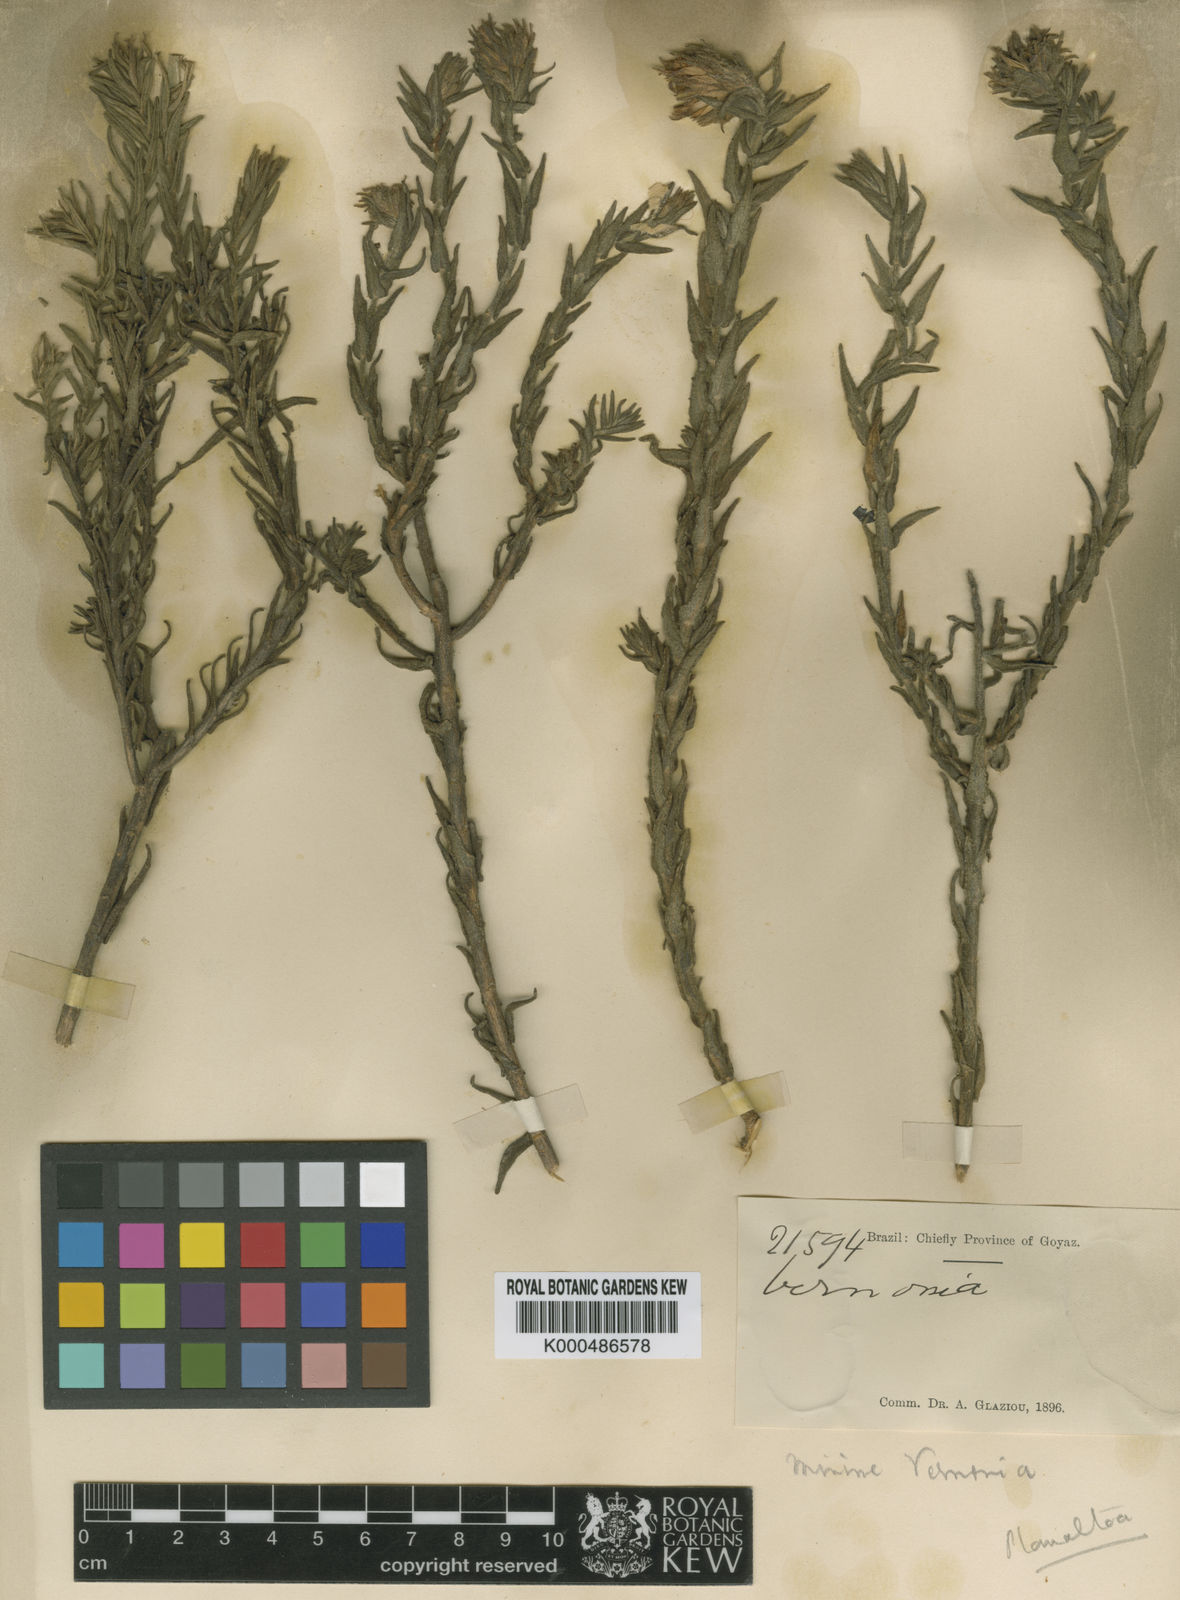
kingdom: Plantae
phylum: Tracheophyta
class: Magnoliopsida
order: Asterales
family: Asteraceae
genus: Planaltoa
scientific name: Planaltoa lychnophoroides
